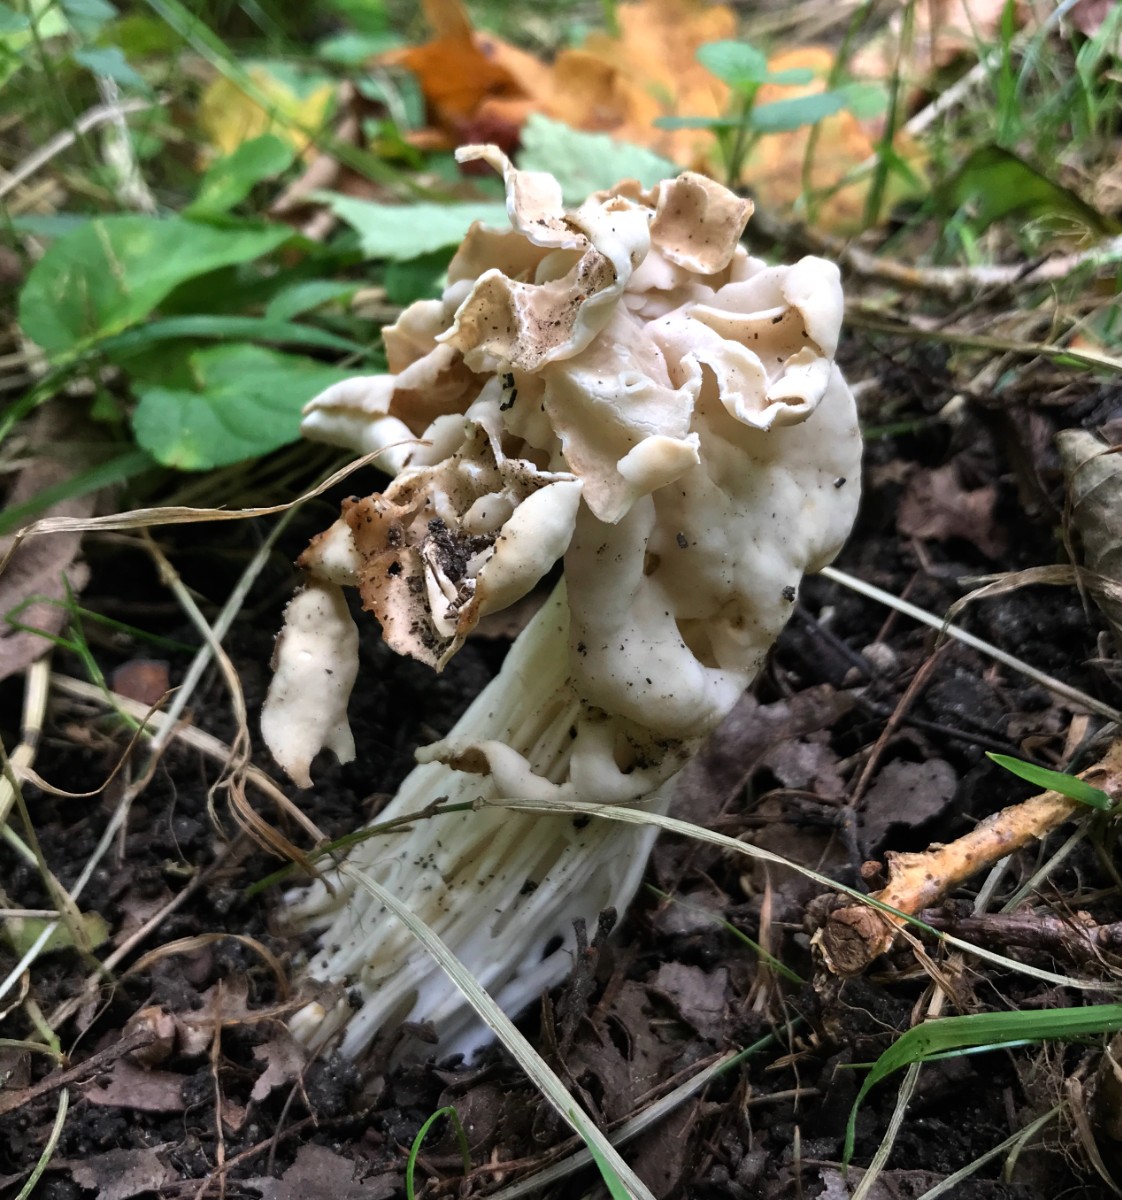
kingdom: Fungi
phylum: Ascomycota
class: Pezizomycetes
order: Pezizales
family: Helvellaceae
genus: Helvella
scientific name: Helvella crispa
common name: kruset foldhat
